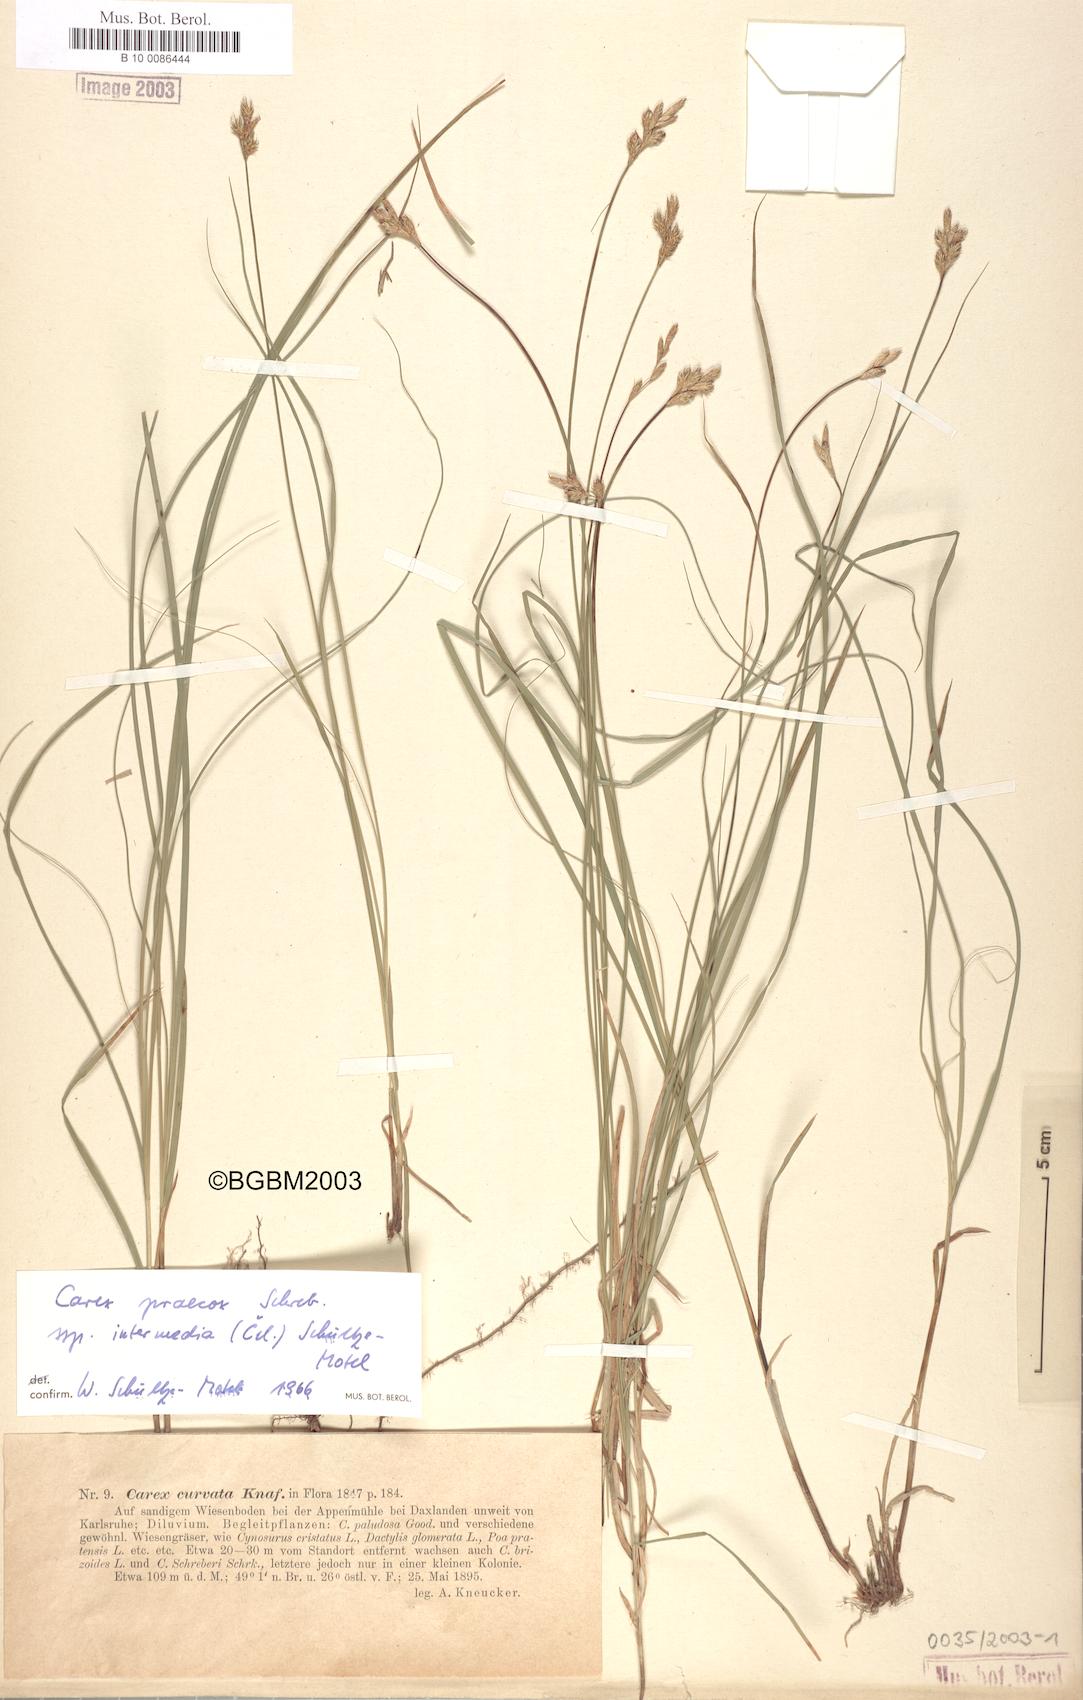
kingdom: Plantae
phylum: Tracheophyta
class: Liliopsida
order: Poales
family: Cyperaceae
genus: Carex
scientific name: Carex curvata
